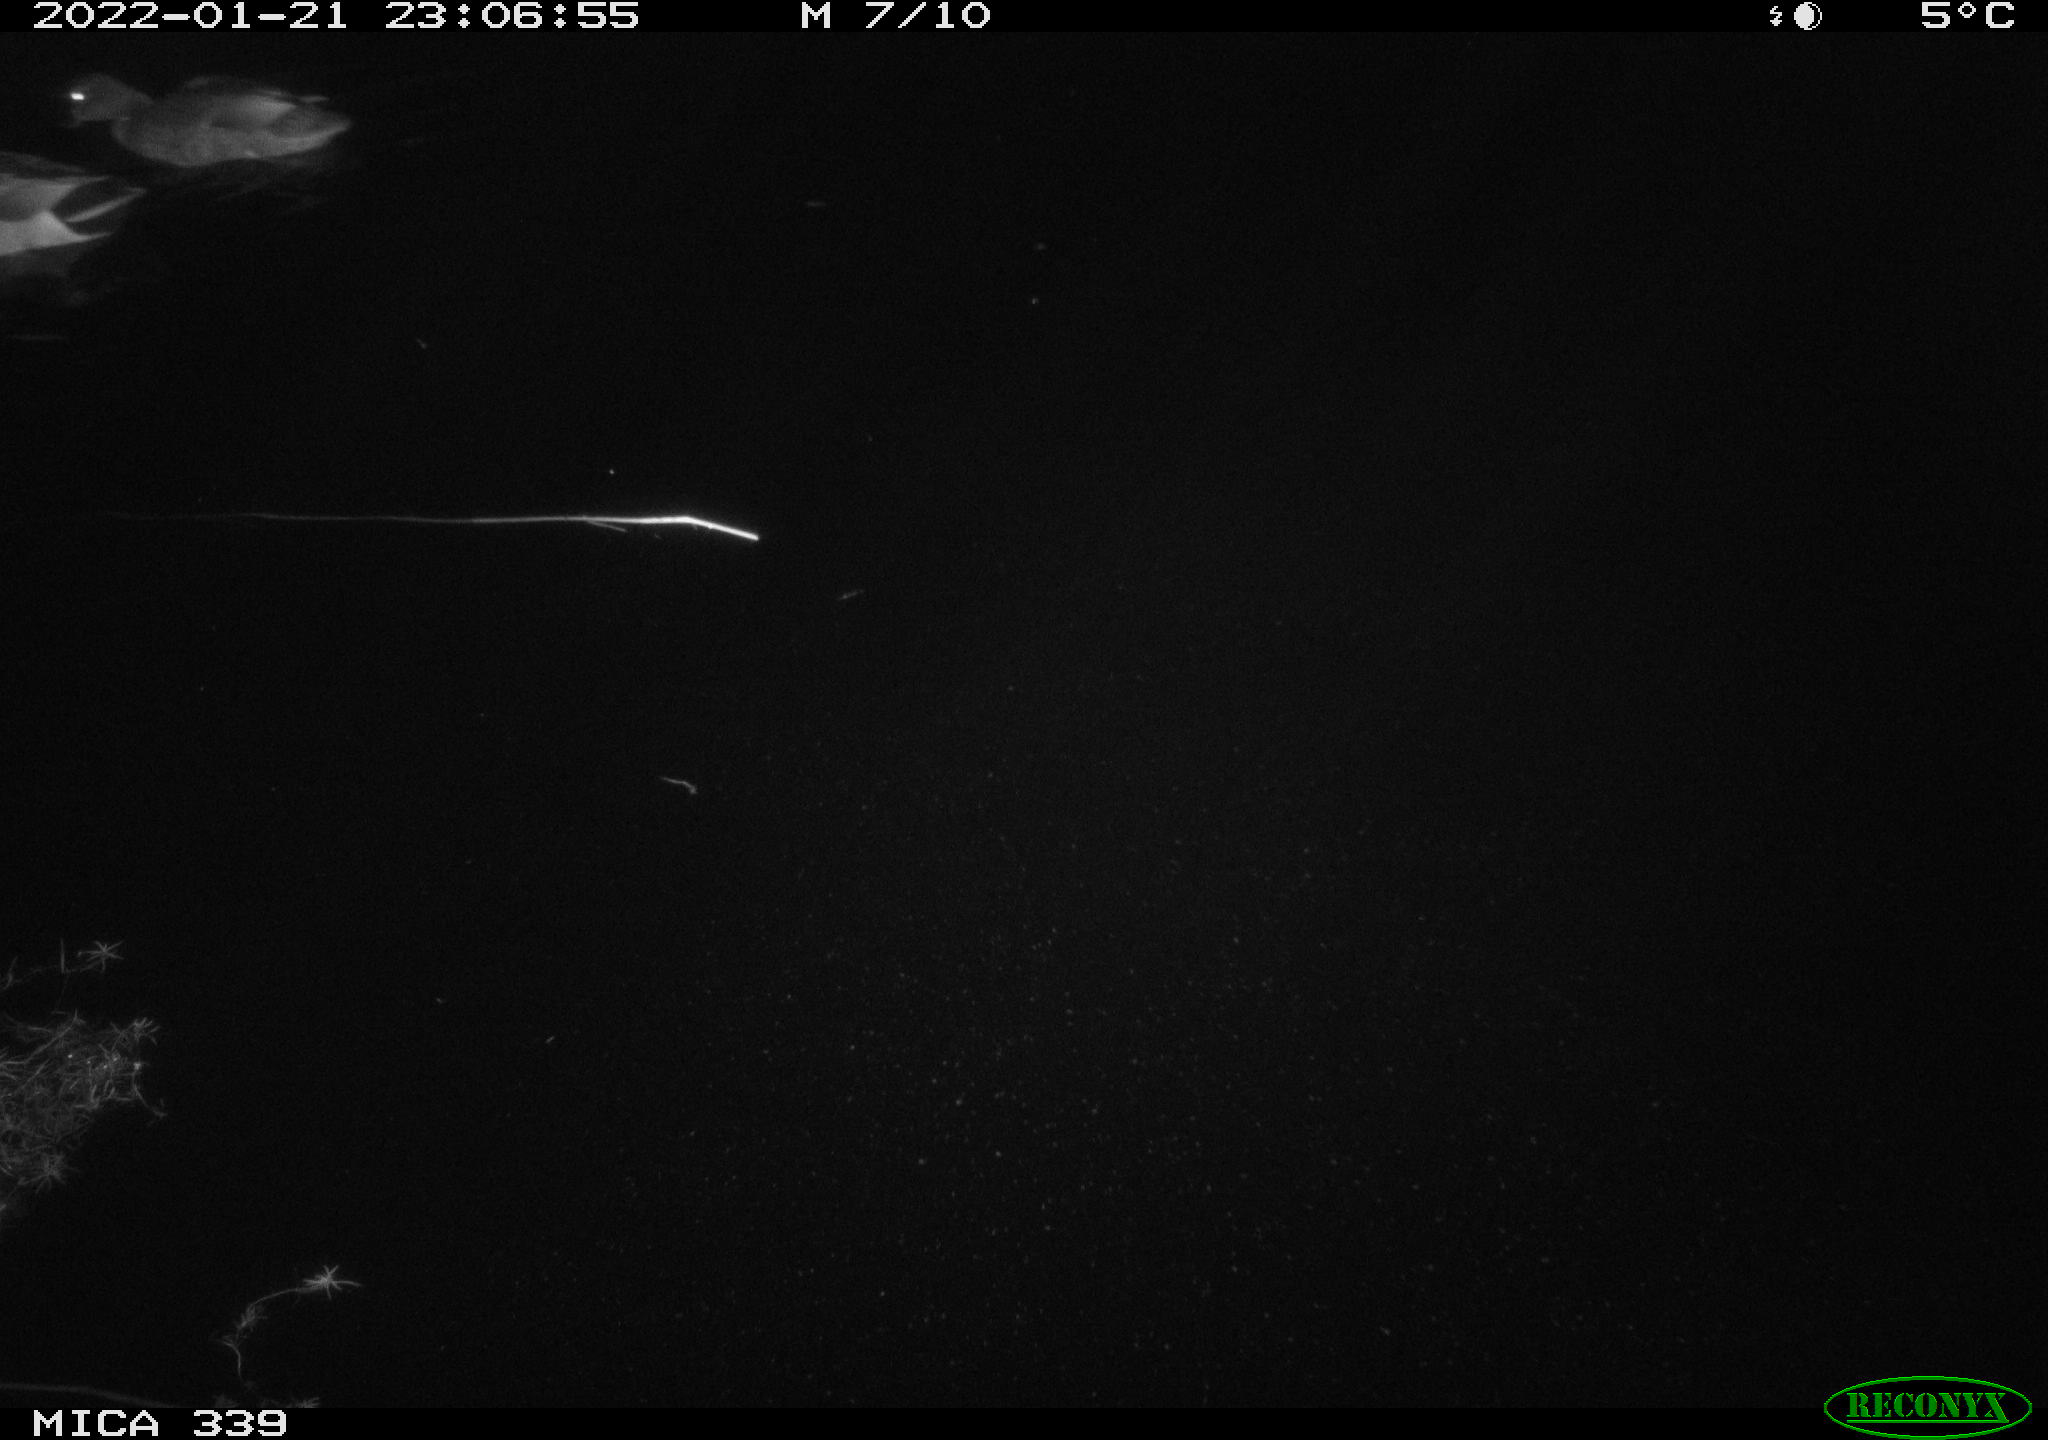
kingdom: Animalia
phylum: Chordata
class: Aves
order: Anseriformes
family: Anatidae
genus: Anas
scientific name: Anas platyrhynchos
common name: Mallard
